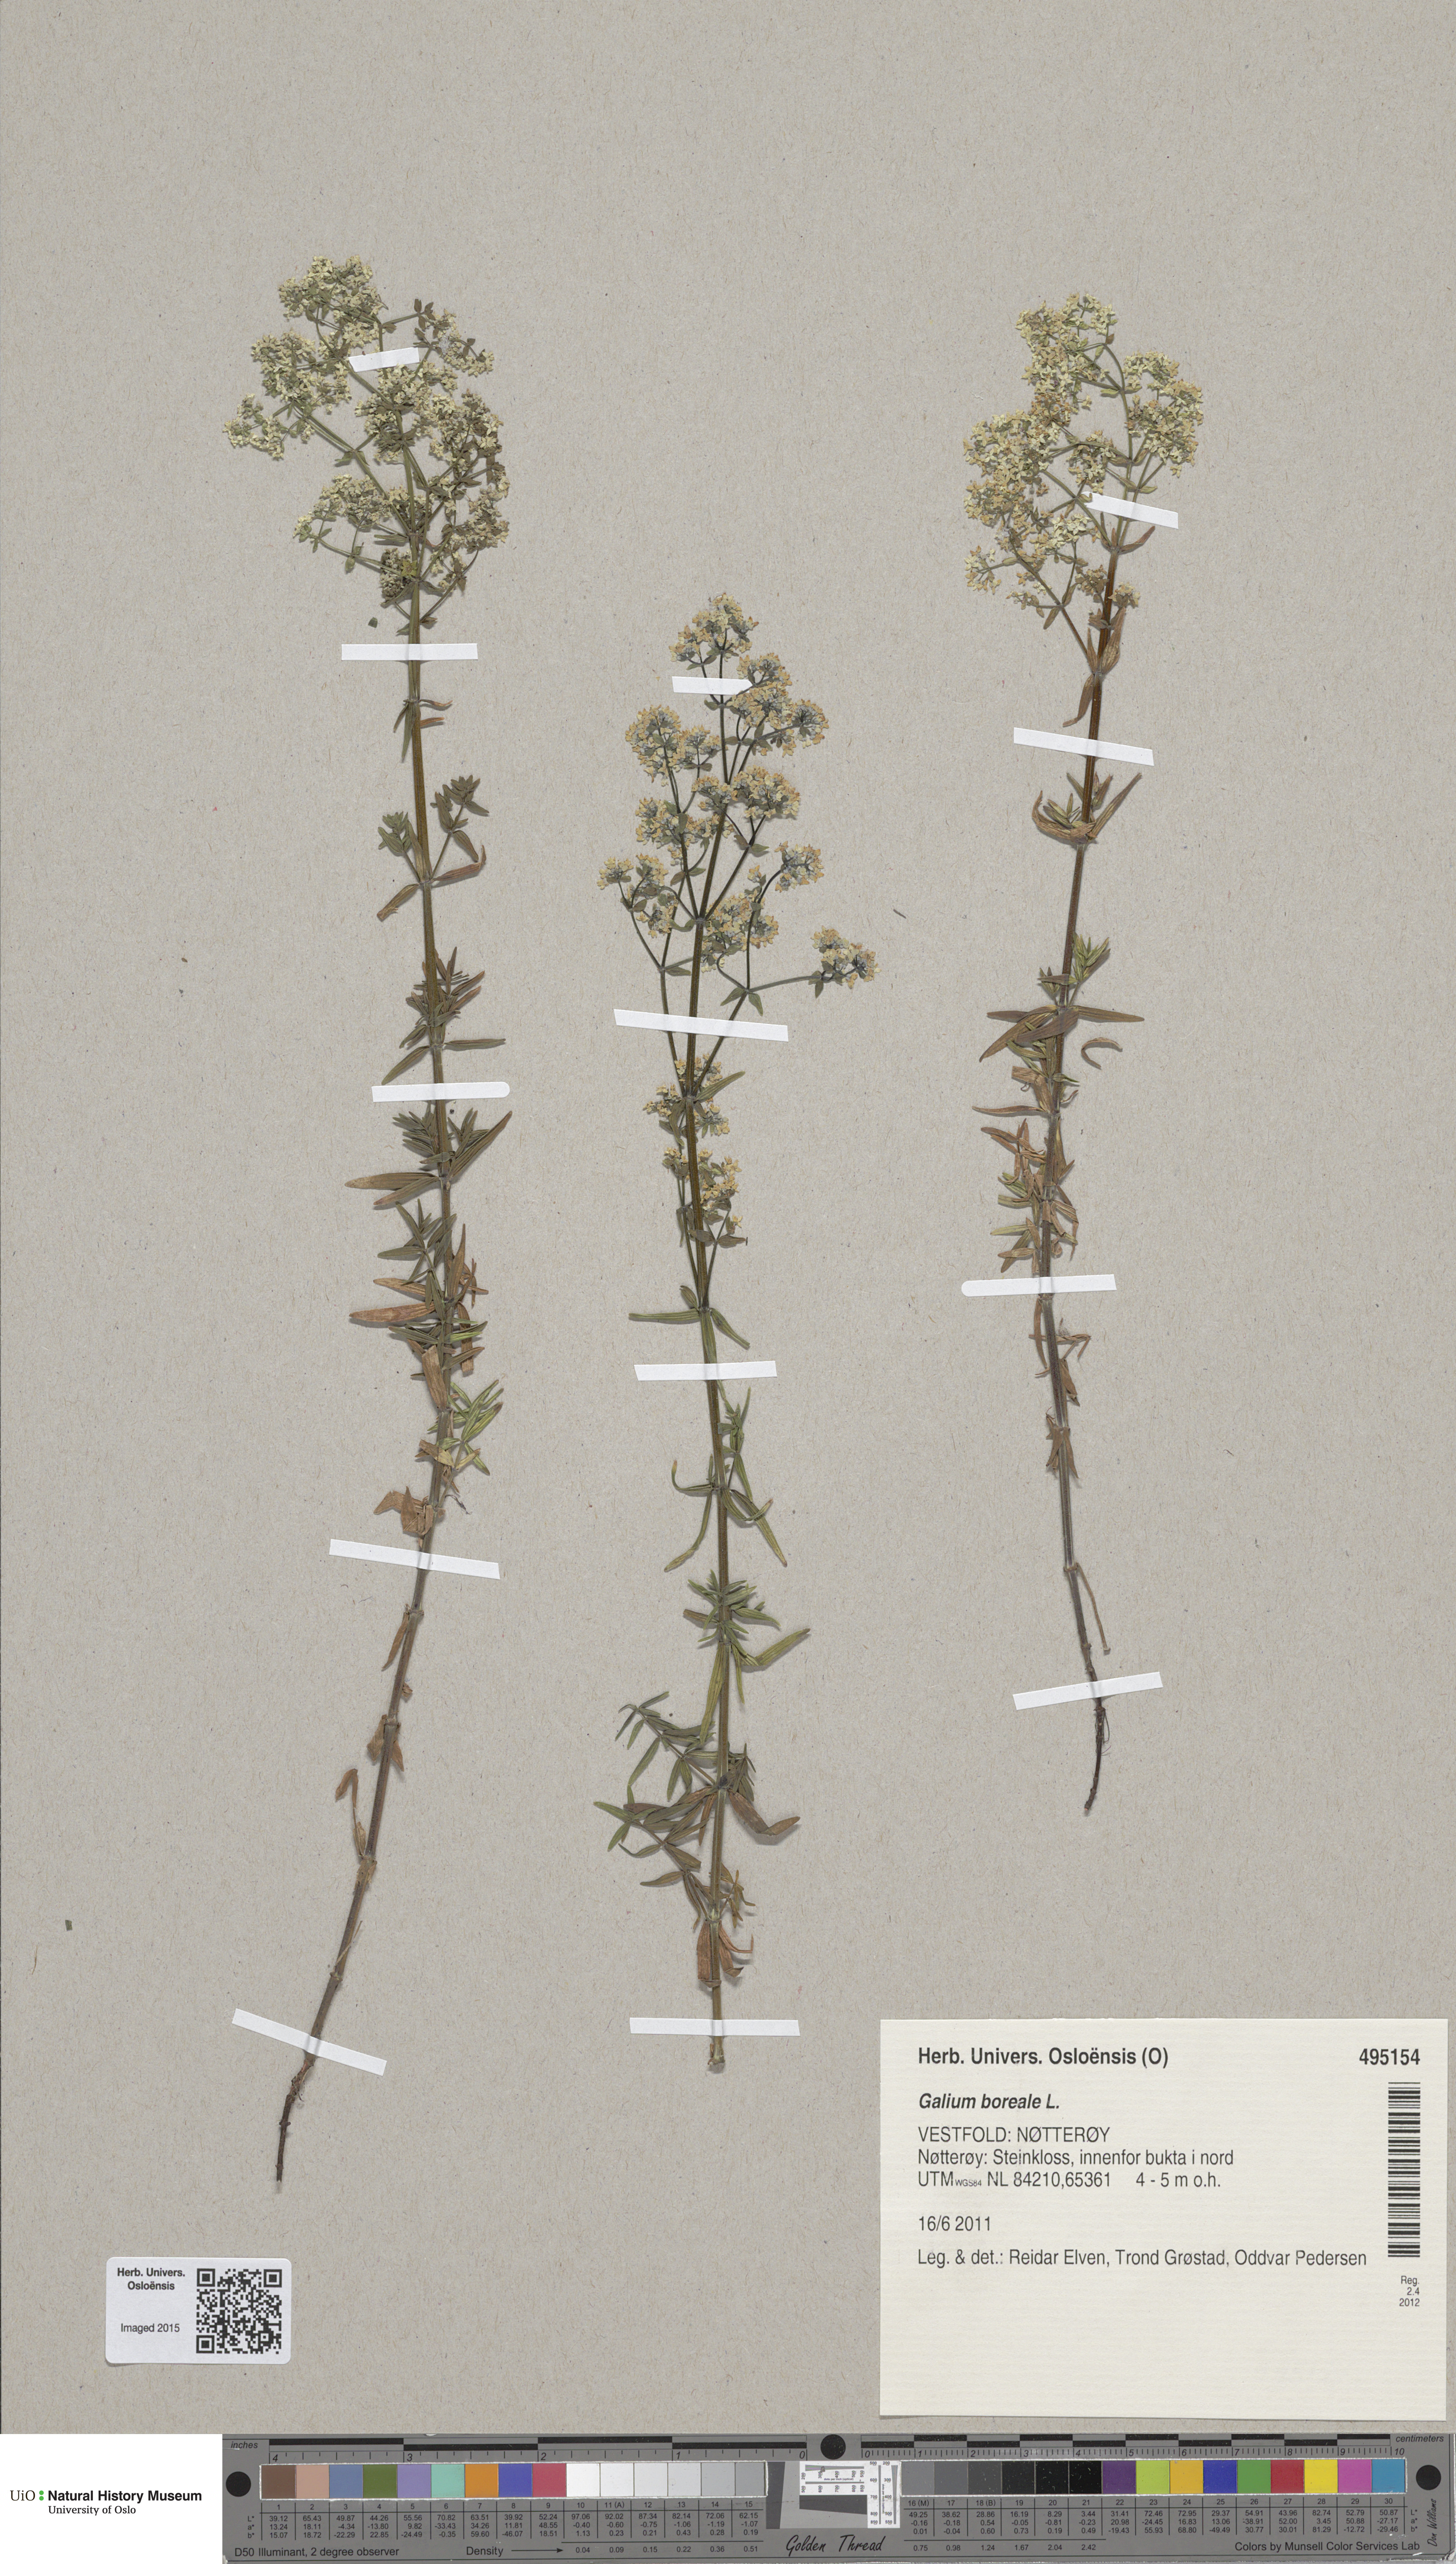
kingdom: Plantae
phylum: Tracheophyta
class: Magnoliopsida
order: Gentianales
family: Rubiaceae
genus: Galium
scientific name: Galium boreale
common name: Northern bedstraw
